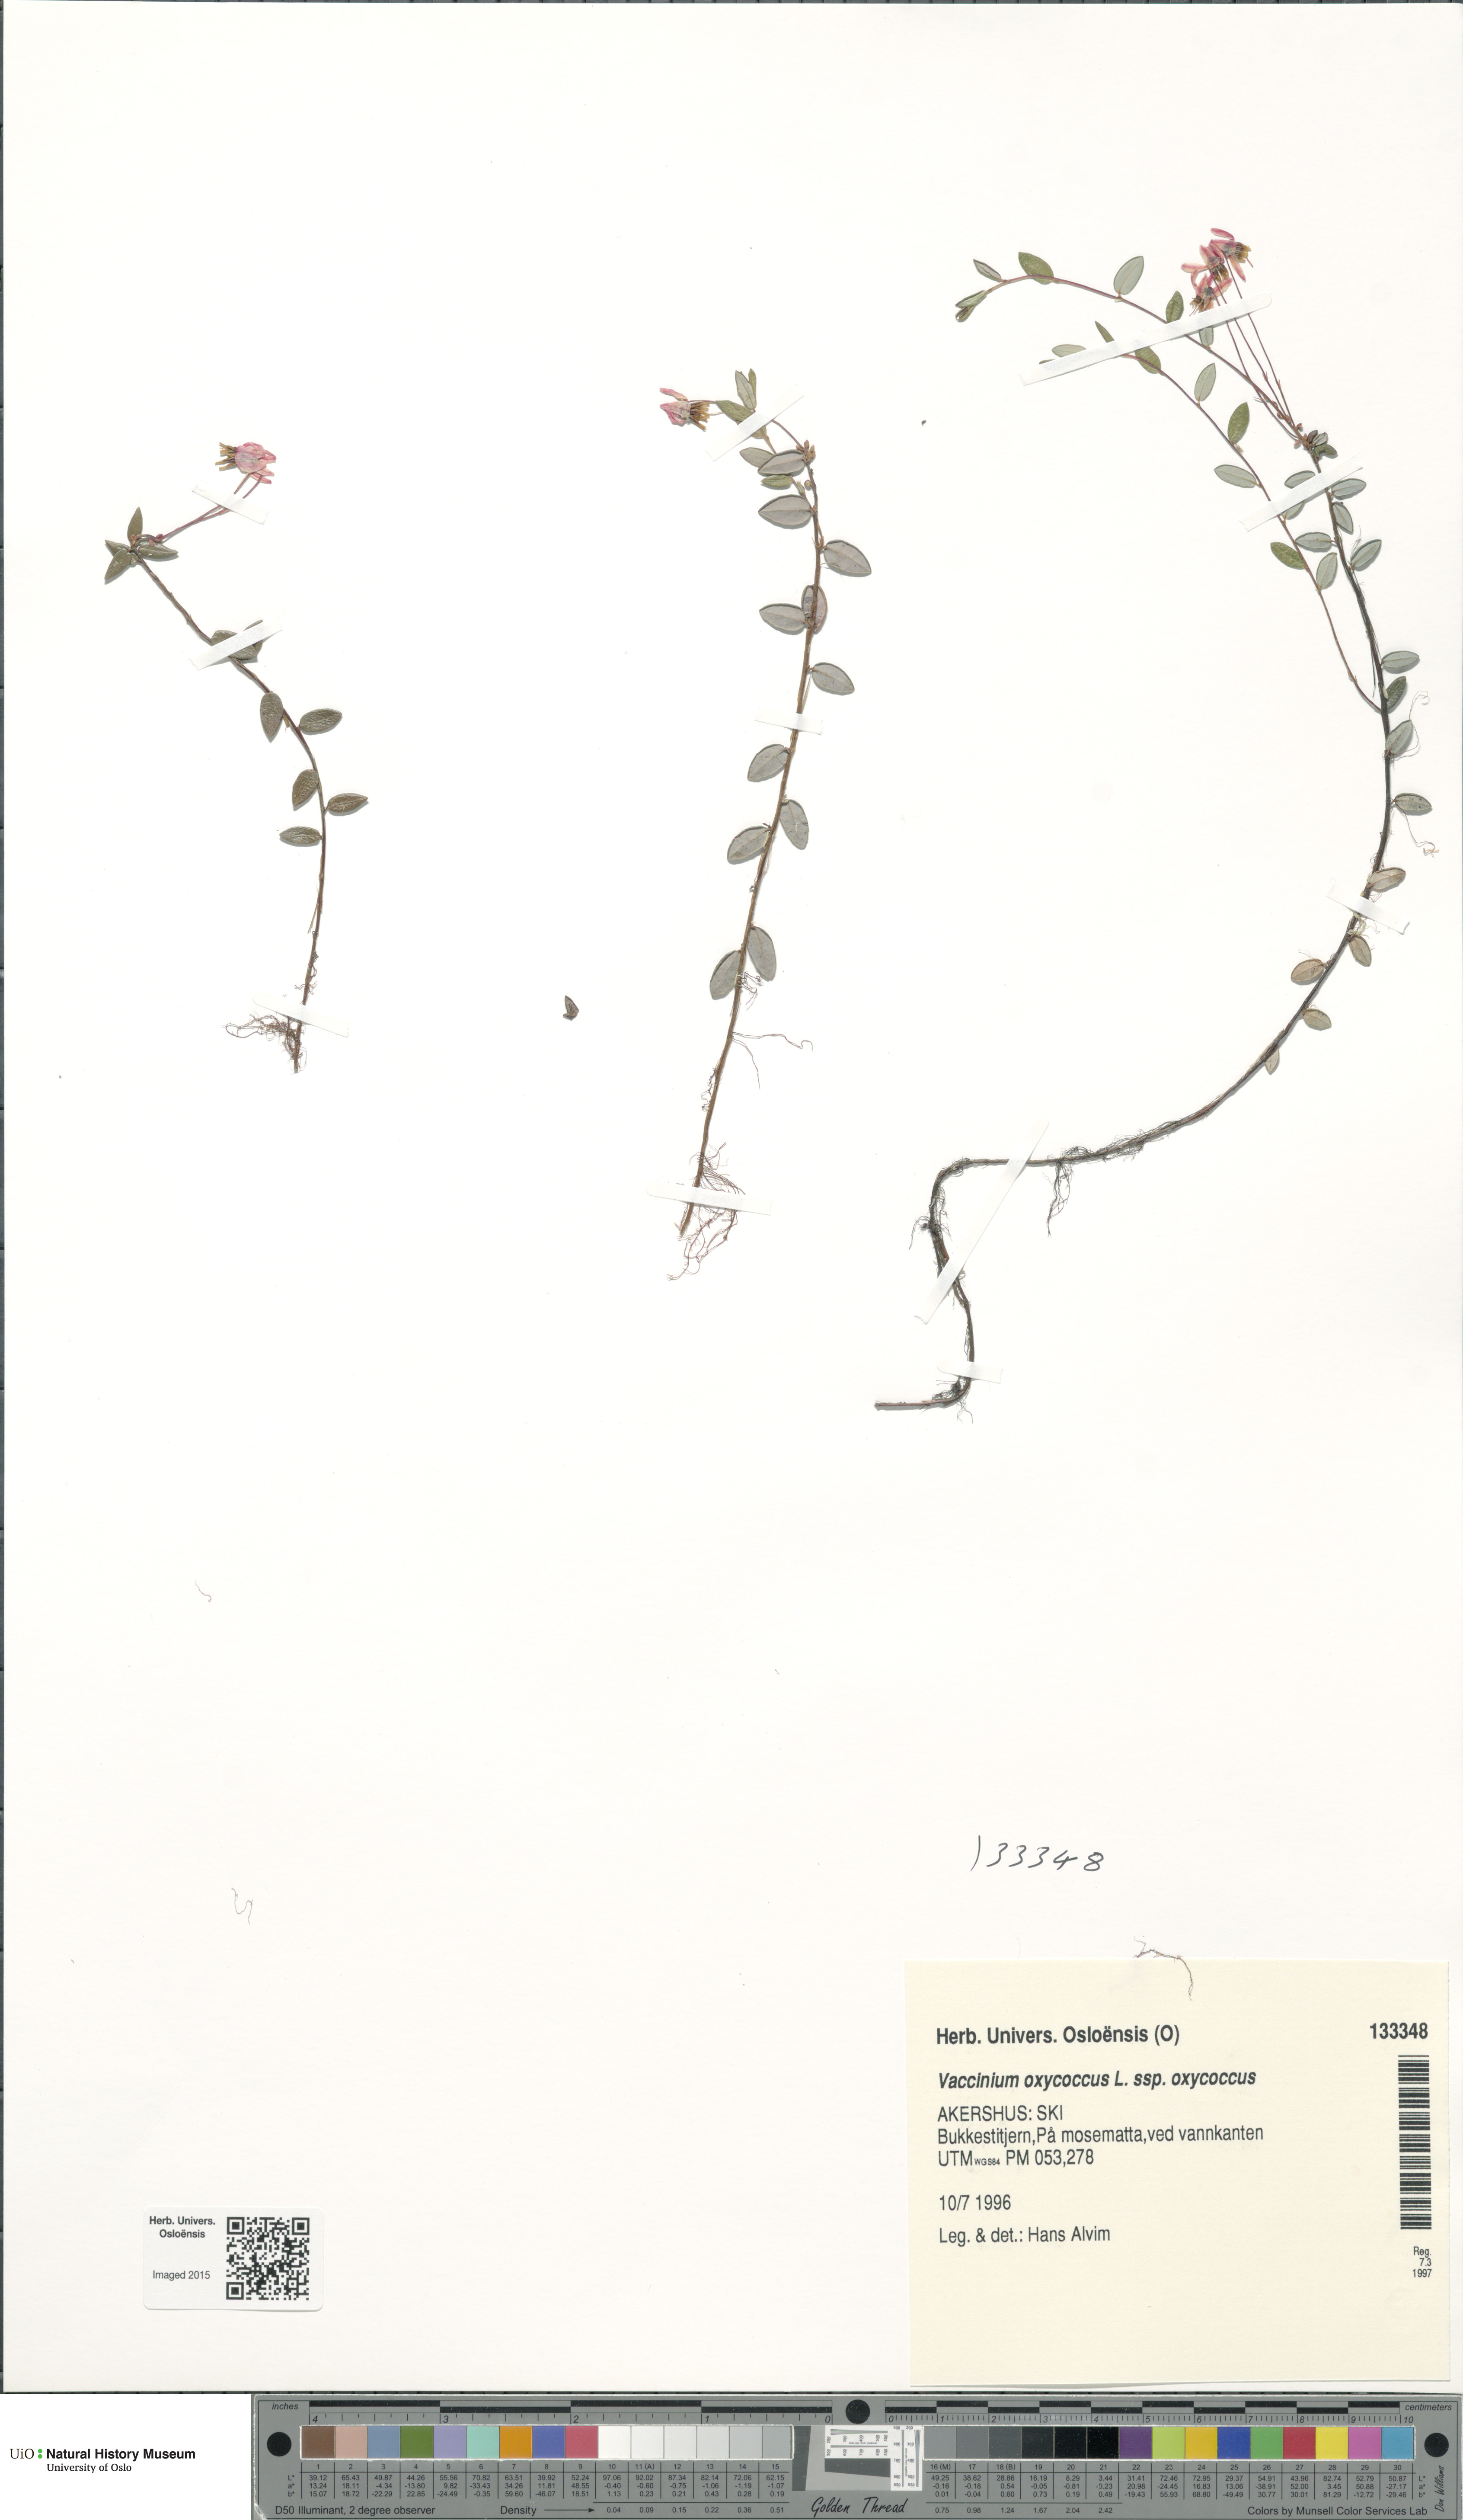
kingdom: Plantae
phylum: Tracheophyta
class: Magnoliopsida
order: Ericales
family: Ericaceae
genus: Vaccinium
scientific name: Vaccinium oxycoccos
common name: Cranberry
